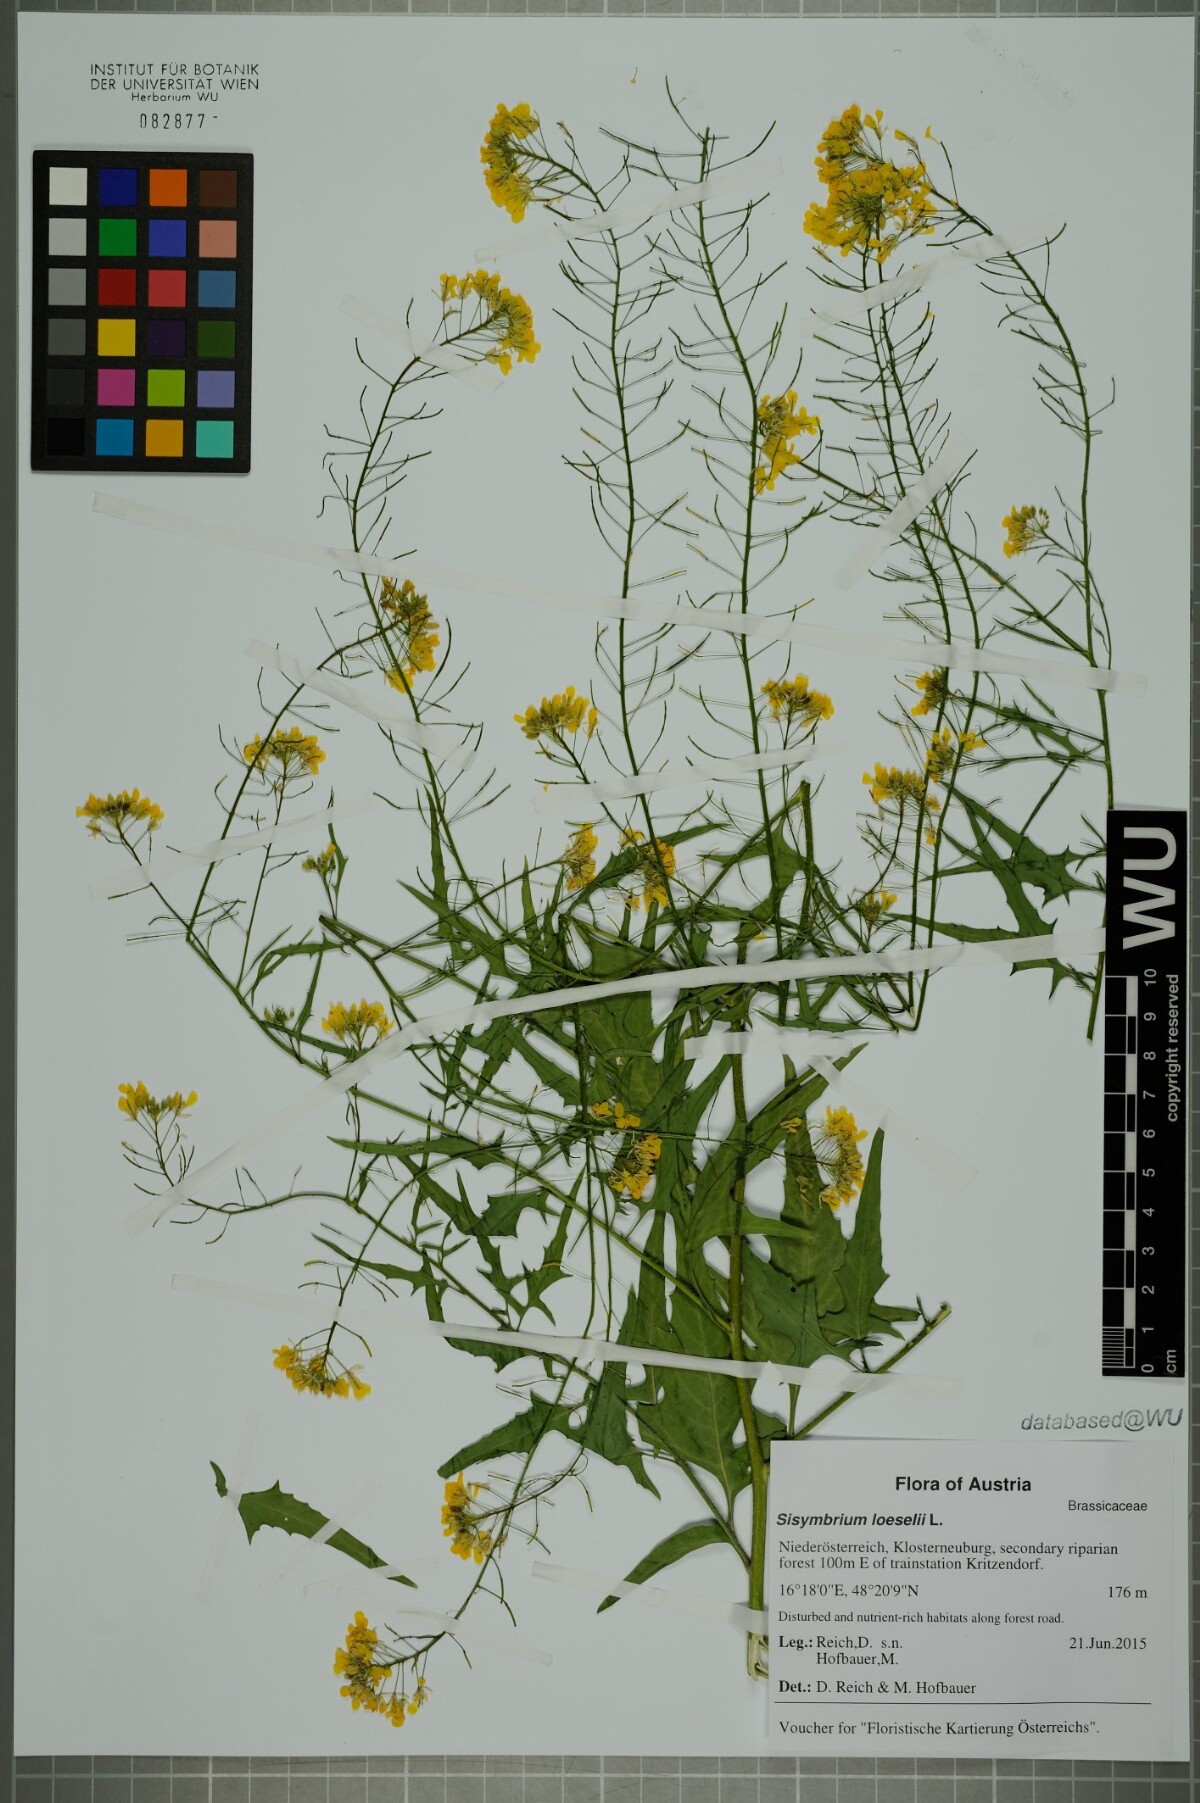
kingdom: Plantae
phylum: Tracheophyta
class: Magnoliopsida
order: Brassicales
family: Brassicaceae
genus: Sisymbrium
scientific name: Sisymbrium loeselii
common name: False london-rocket
